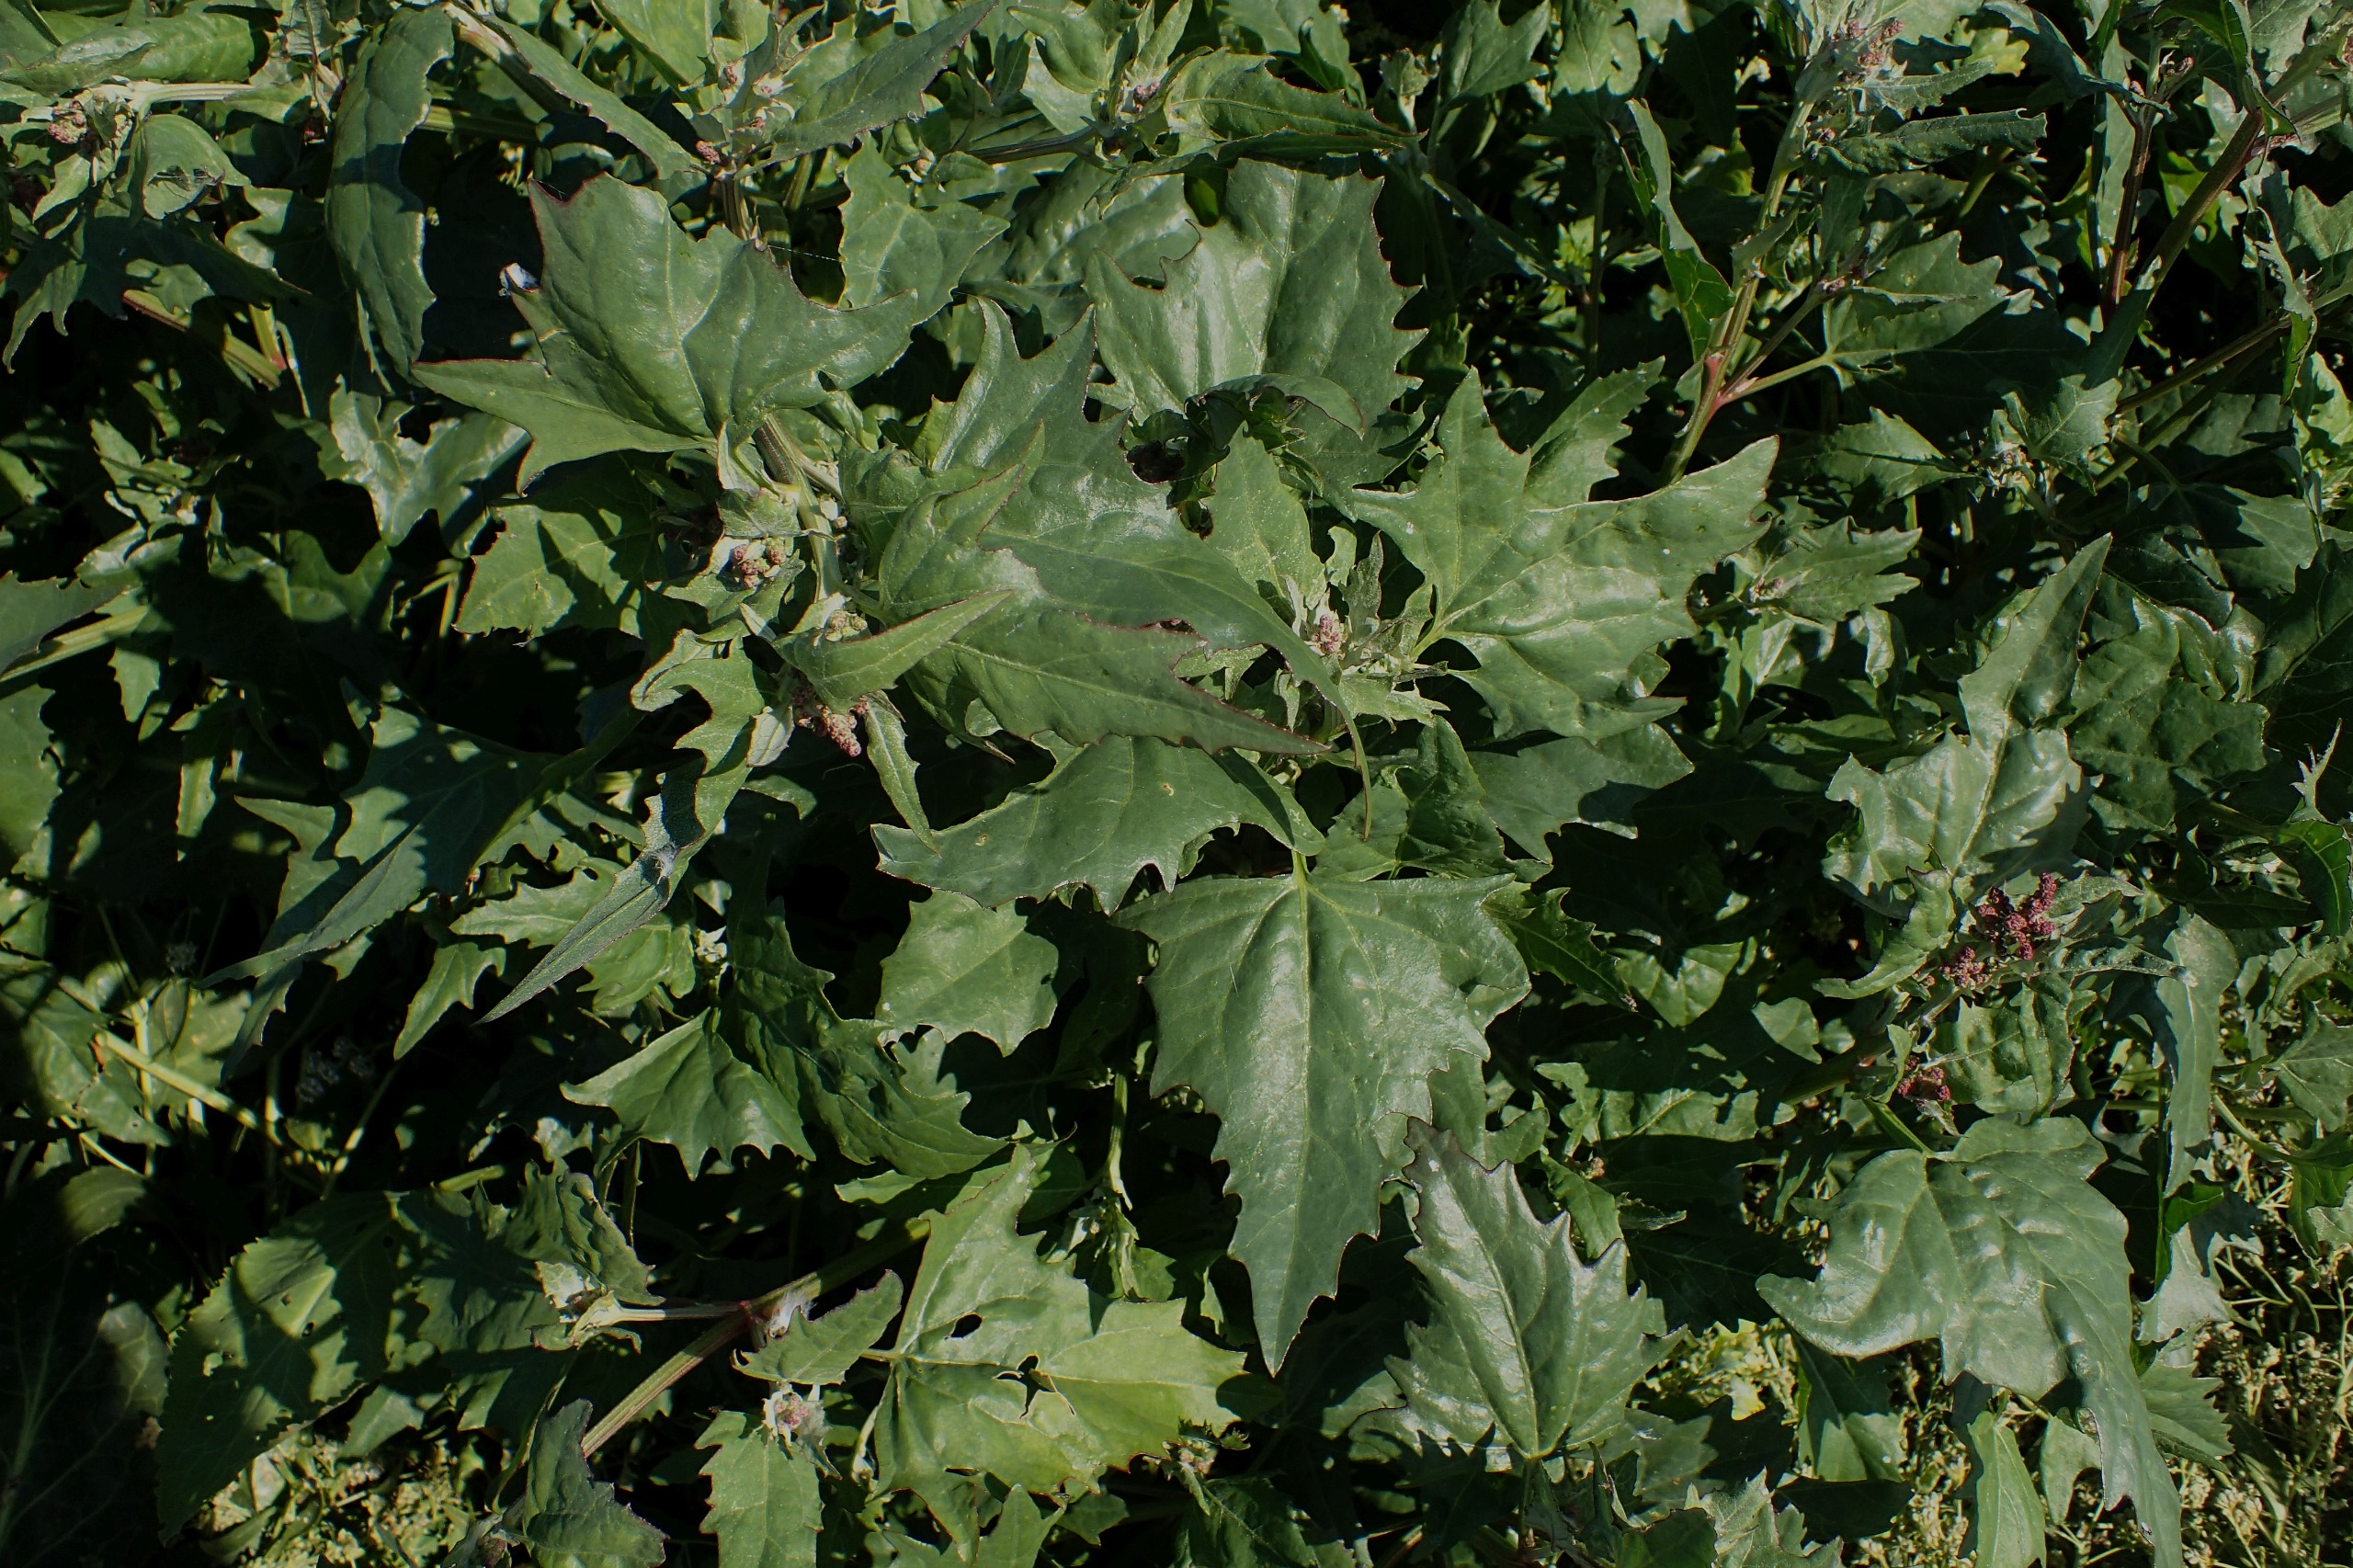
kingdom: Plantae
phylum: Tracheophyta
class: Magnoliopsida
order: Caryophyllales
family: Amaranthaceae
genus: Oxybasis
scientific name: Oxybasis rubra
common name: Rød gåsefod
